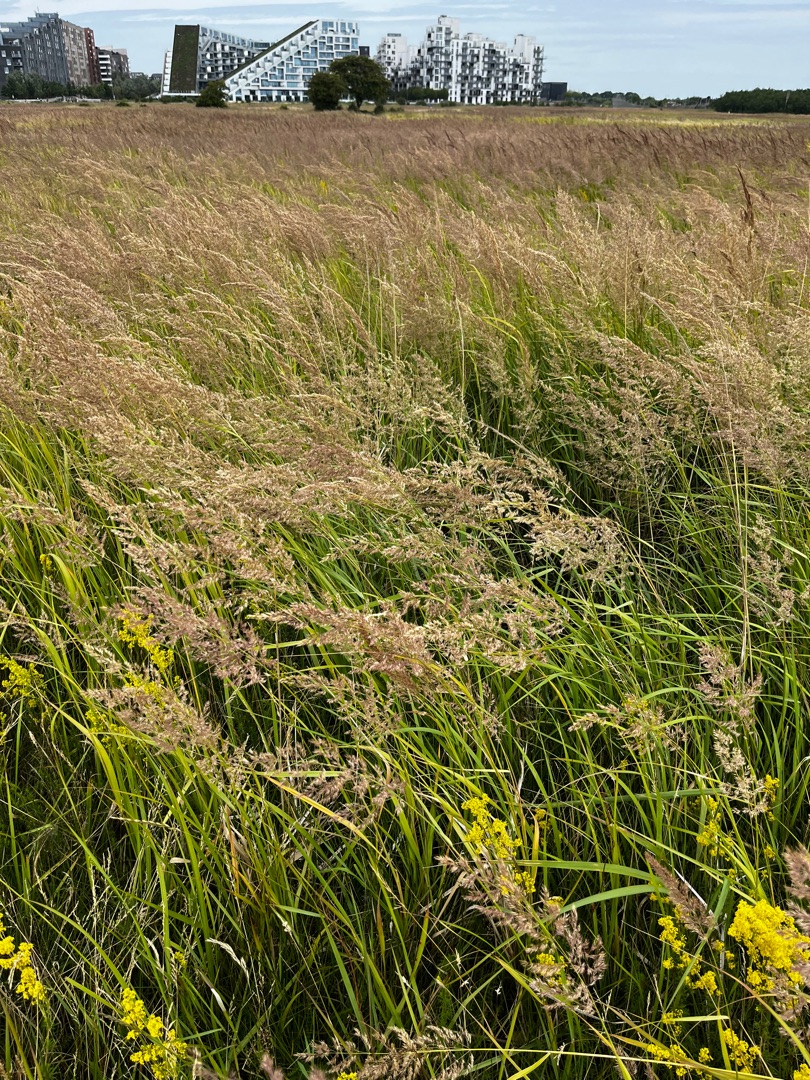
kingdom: Plantae
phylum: Tracheophyta
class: Liliopsida
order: Poales
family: Poaceae
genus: Calamagrostis
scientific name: Calamagrostis epigejos
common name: Bjerg-rørhvene
